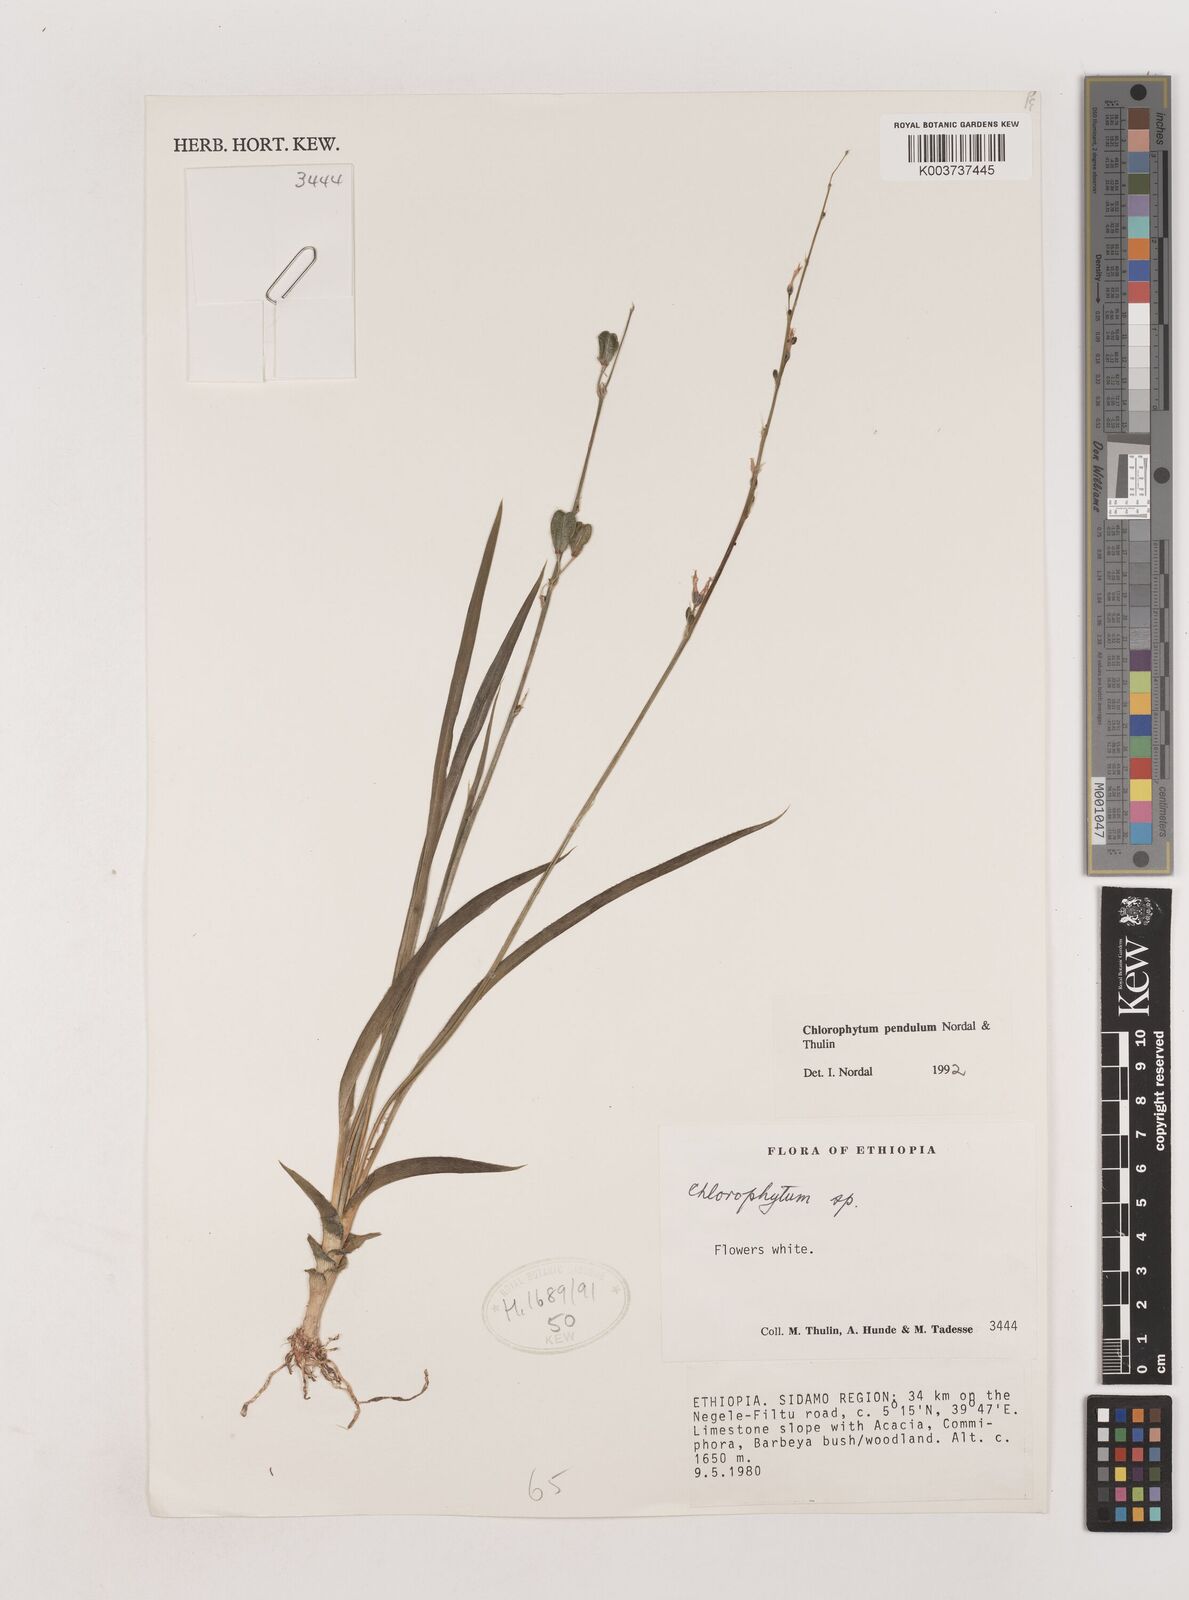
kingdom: Plantae
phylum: Tracheophyta
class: Liliopsida
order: Asparagales
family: Asparagaceae
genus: Chlorophytum
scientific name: Chlorophytum pendulum
